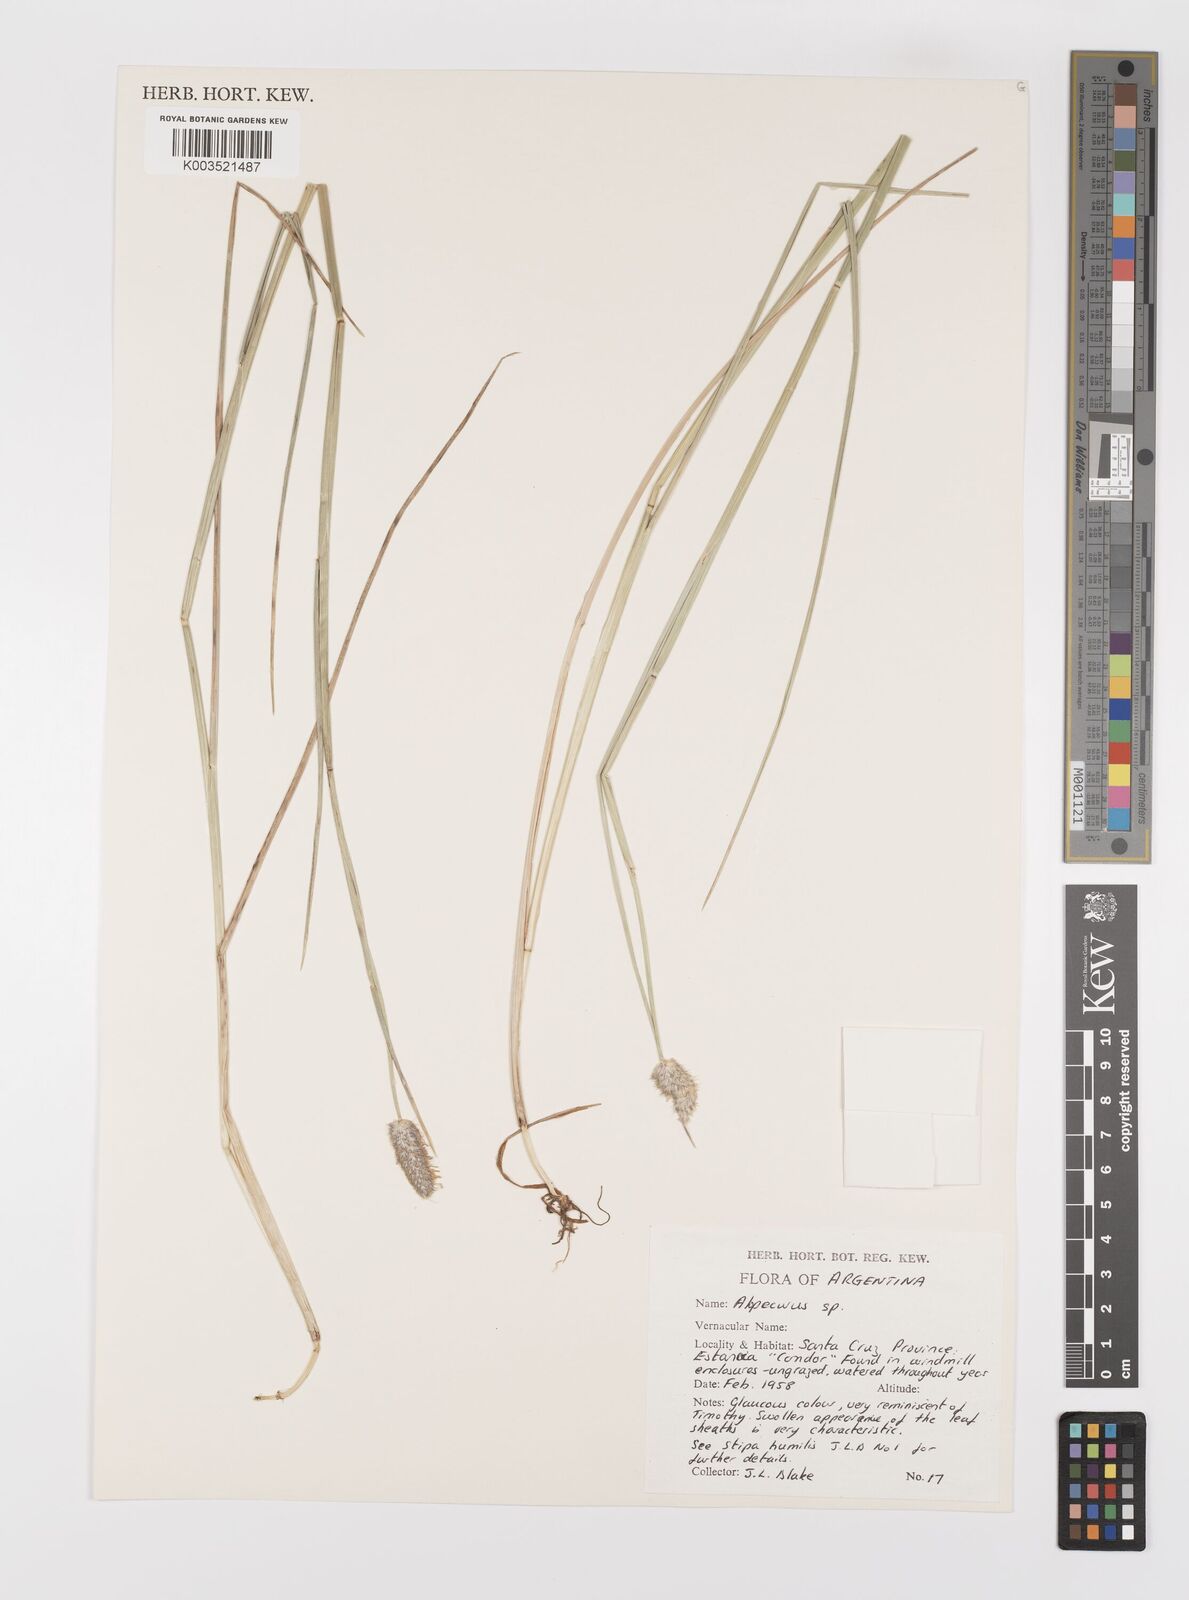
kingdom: Plantae
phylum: Tracheophyta
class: Liliopsida
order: Poales
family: Poaceae
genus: Alopecurus
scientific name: Alopecurus magellanicus
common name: Alpine foxtail
